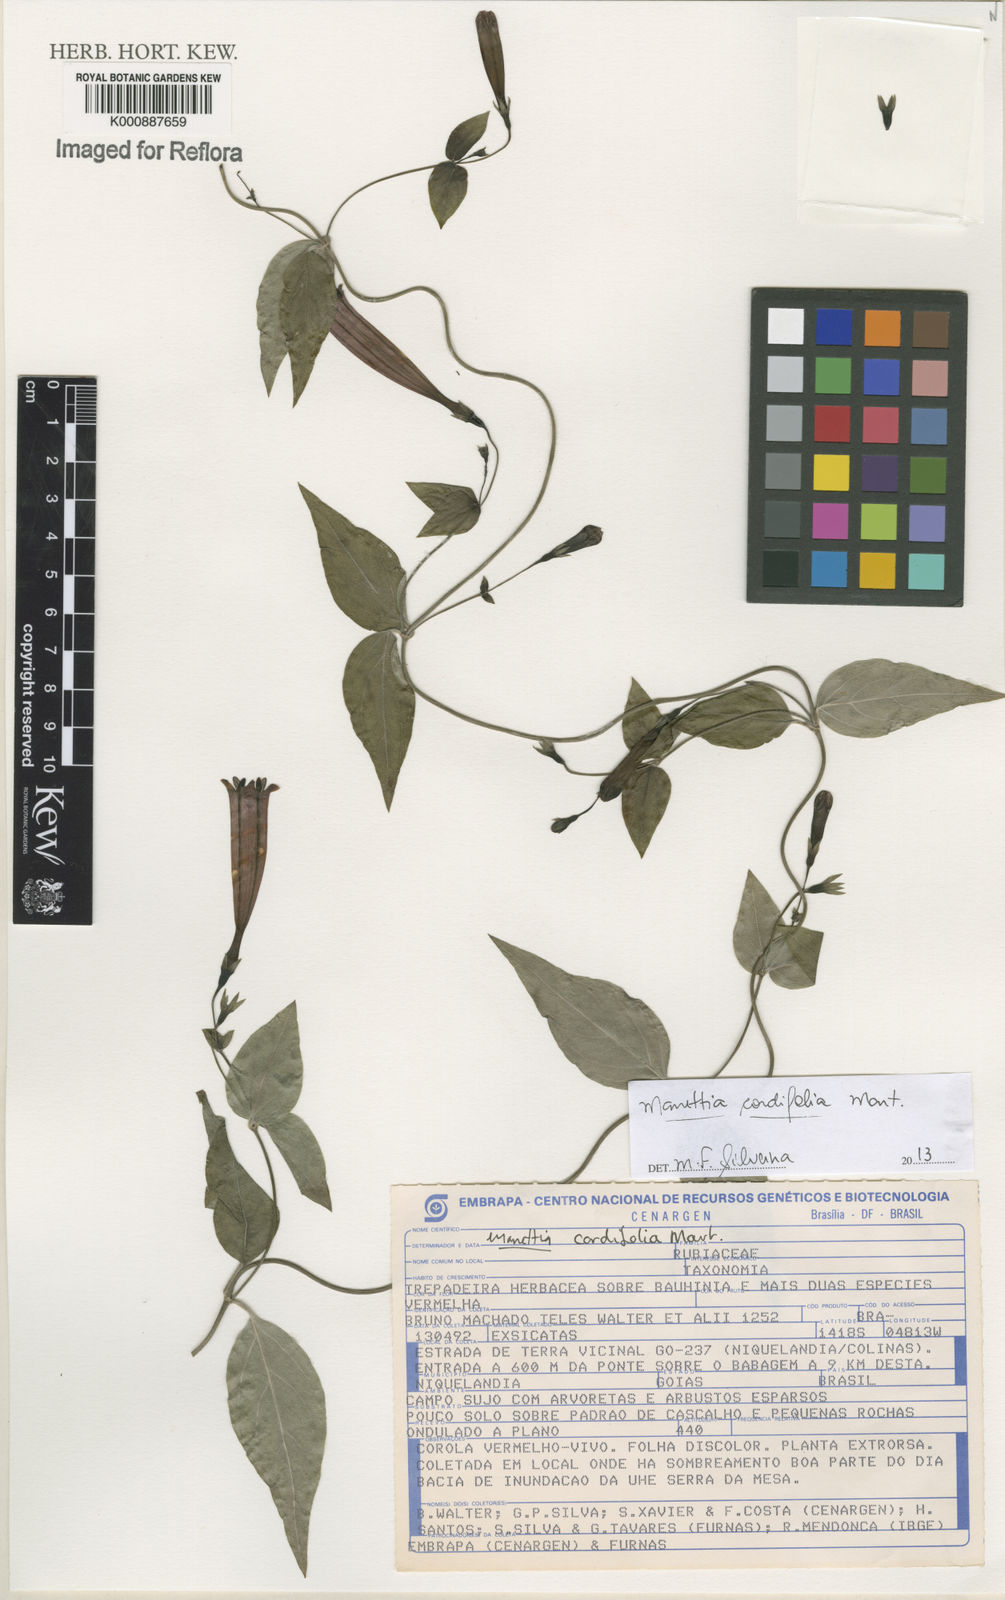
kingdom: Plantae
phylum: Tracheophyta
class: Magnoliopsida
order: Gentianales
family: Rubiaceae
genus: Manettia
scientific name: Manettia cordifolia
